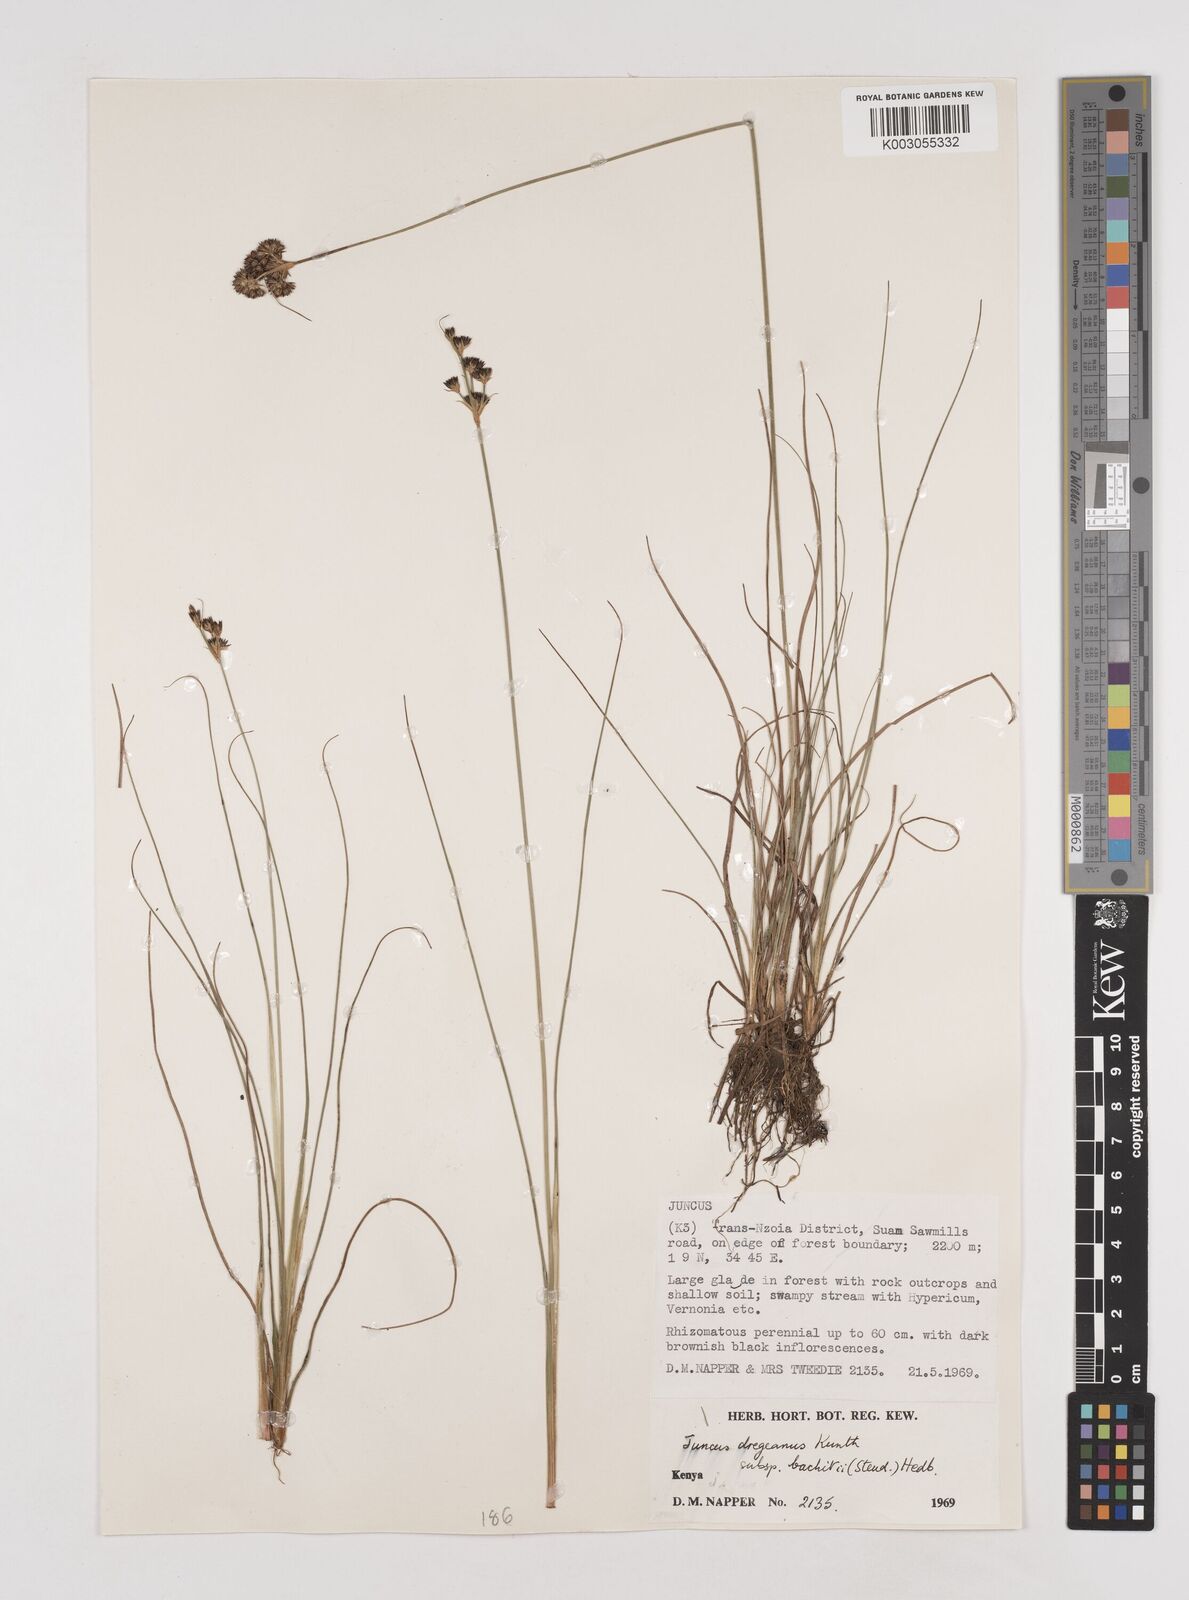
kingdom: Plantae
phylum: Tracheophyta
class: Liliopsida
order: Poales
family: Juncaceae
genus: Juncus
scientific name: Juncus dregeanus
